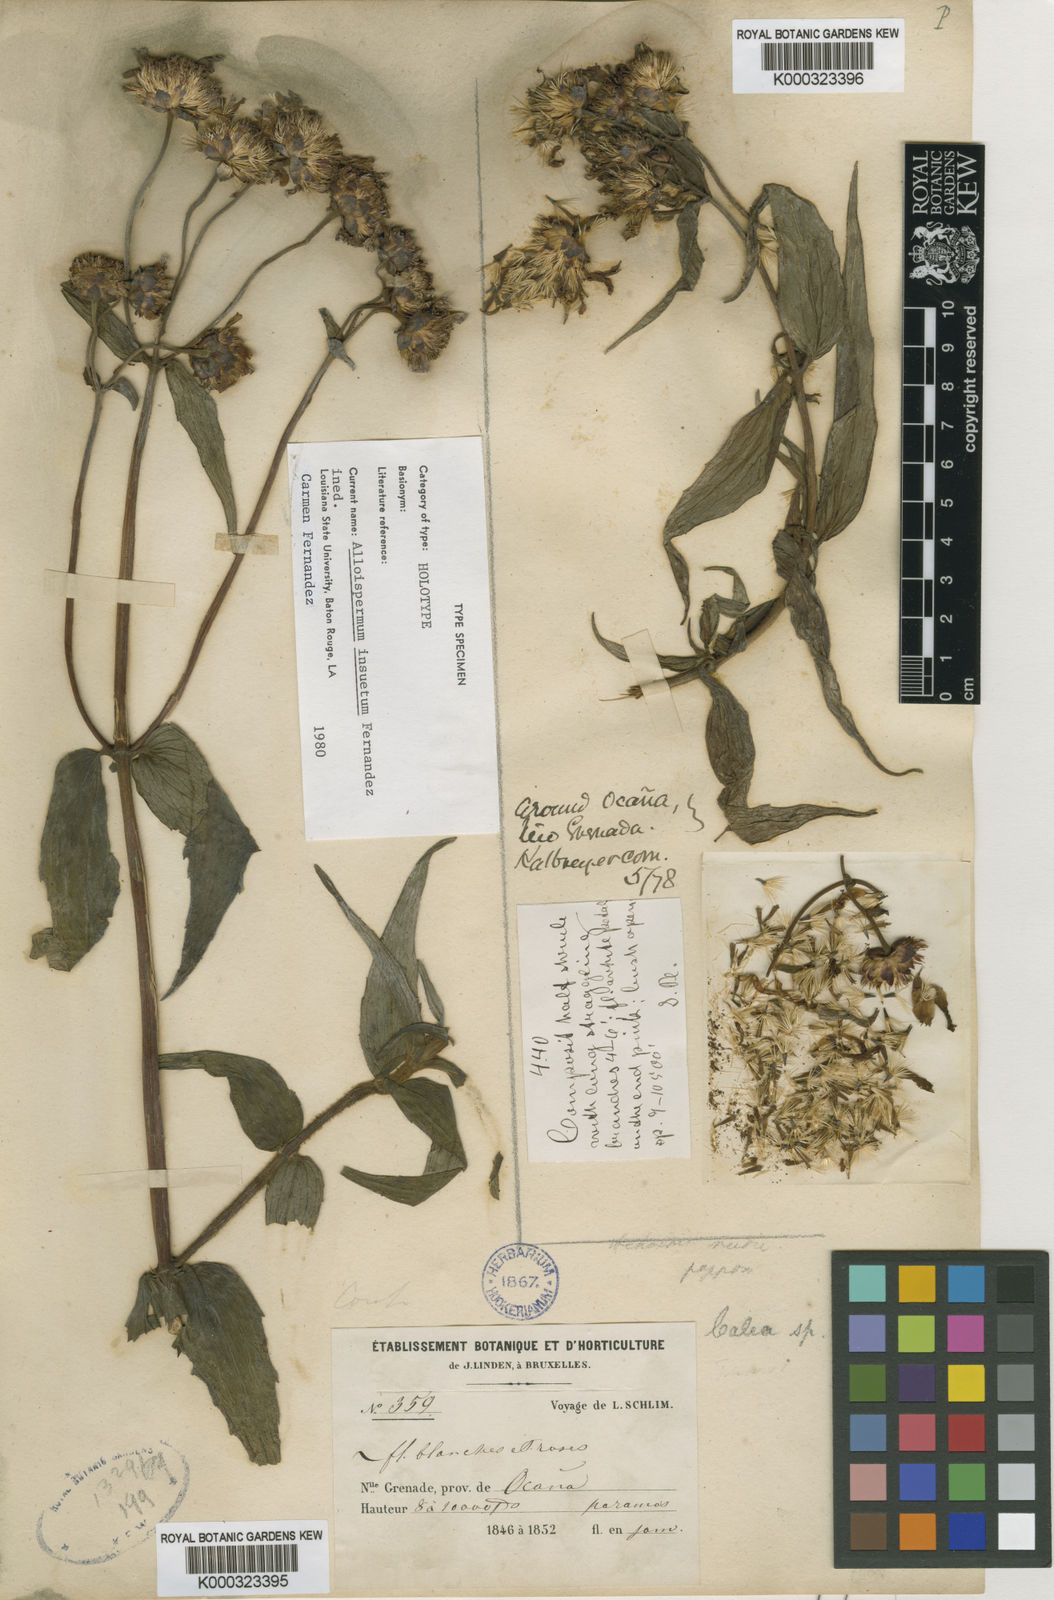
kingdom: Plantae
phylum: Tracheophyta
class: Magnoliopsida
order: Asterales
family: Asteraceae
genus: Alloispermum
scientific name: Alloispermum
